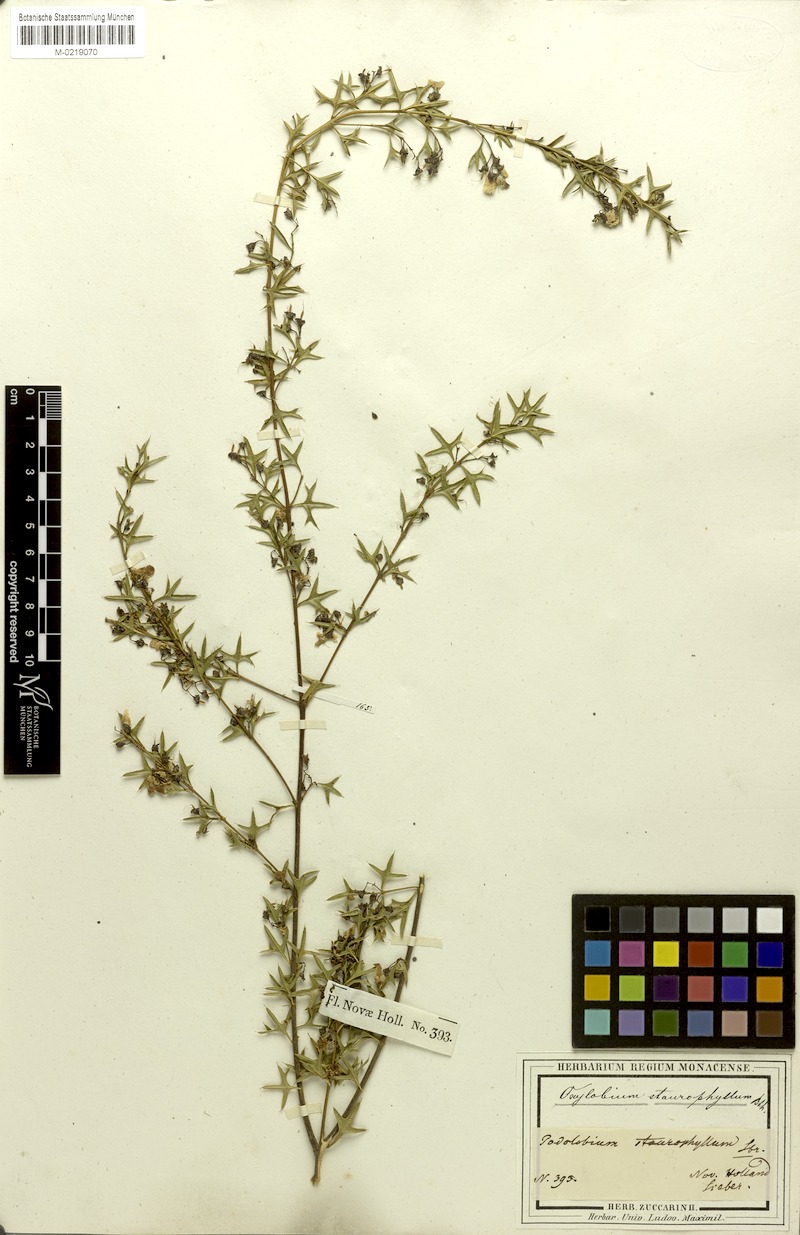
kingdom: Plantae
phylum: Tracheophyta
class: Magnoliopsida
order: Fabales
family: Fabaceae
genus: Podolobium
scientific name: Podolobium ilicifolium
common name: Native holly
